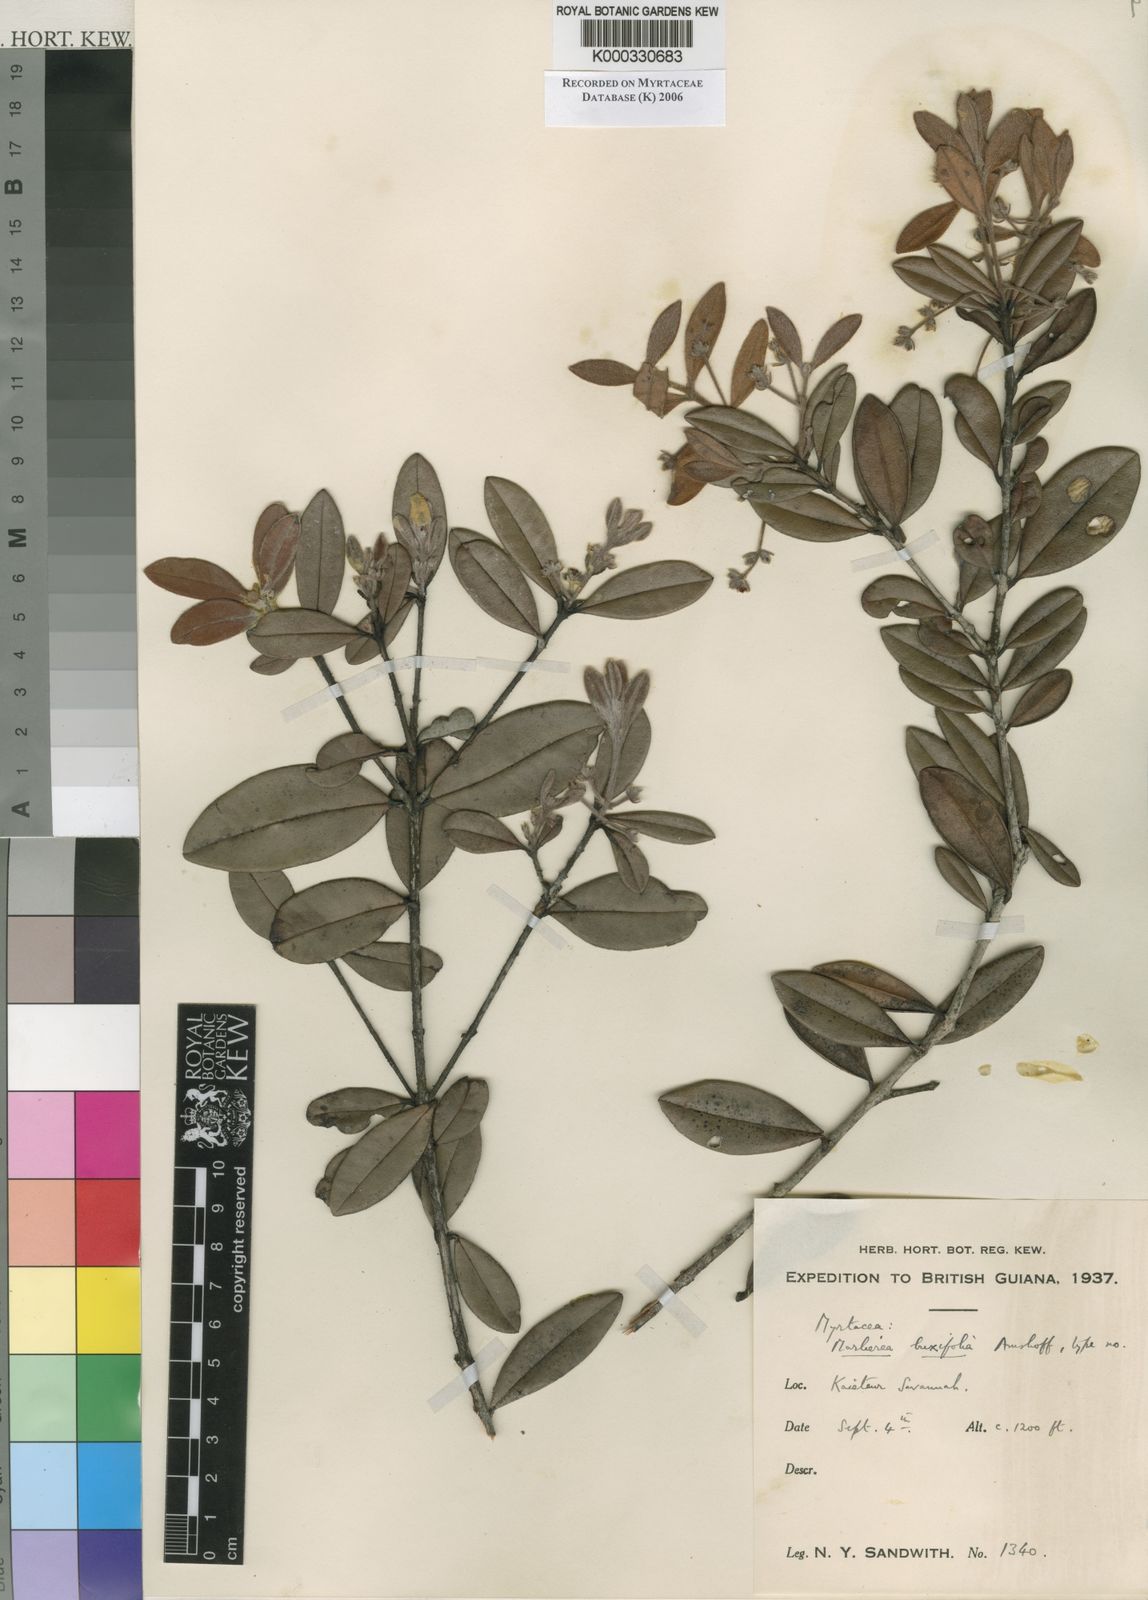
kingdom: Plantae
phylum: Tracheophyta
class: Magnoliopsida
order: Myrtales
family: Myrtaceae
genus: Myrcia
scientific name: Myrcia neobuxifolia
